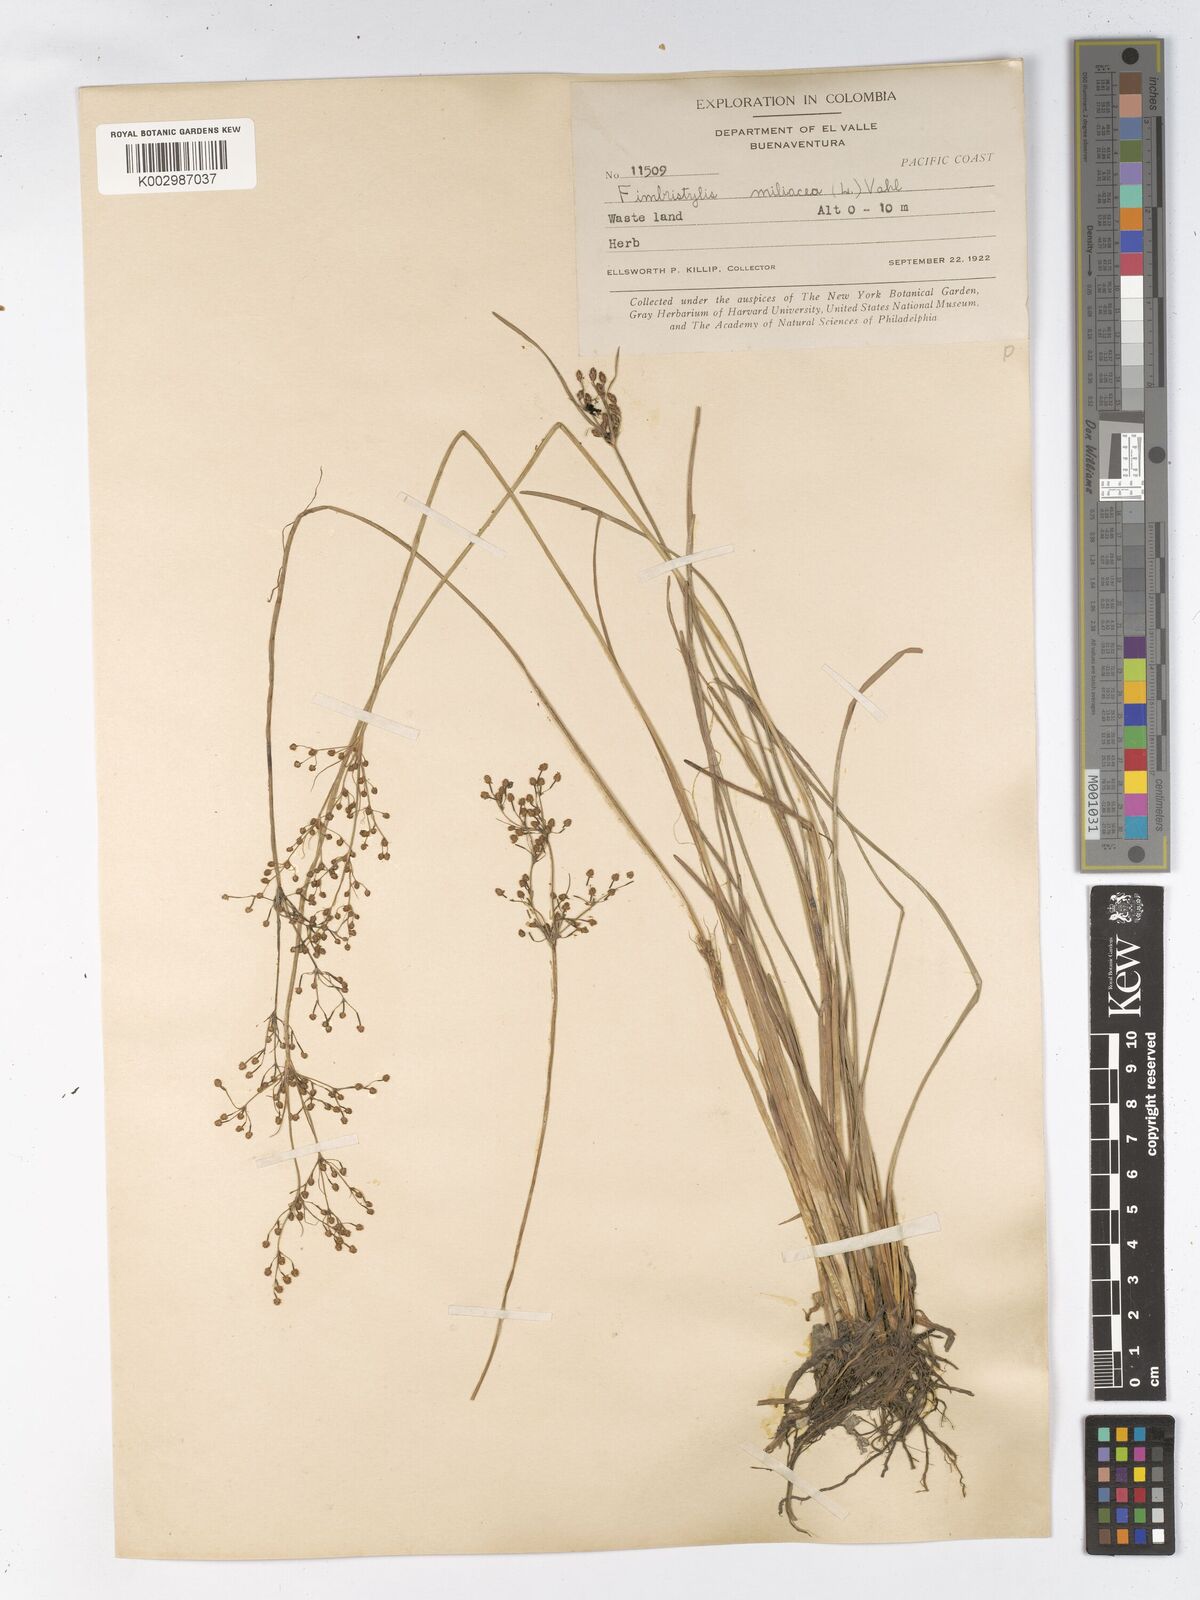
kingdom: Plantae
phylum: Tracheophyta
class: Liliopsida
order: Poales
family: Cyperaceae
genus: Fimbristylis
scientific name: Fimbristylis littoralis
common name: Fimbry
